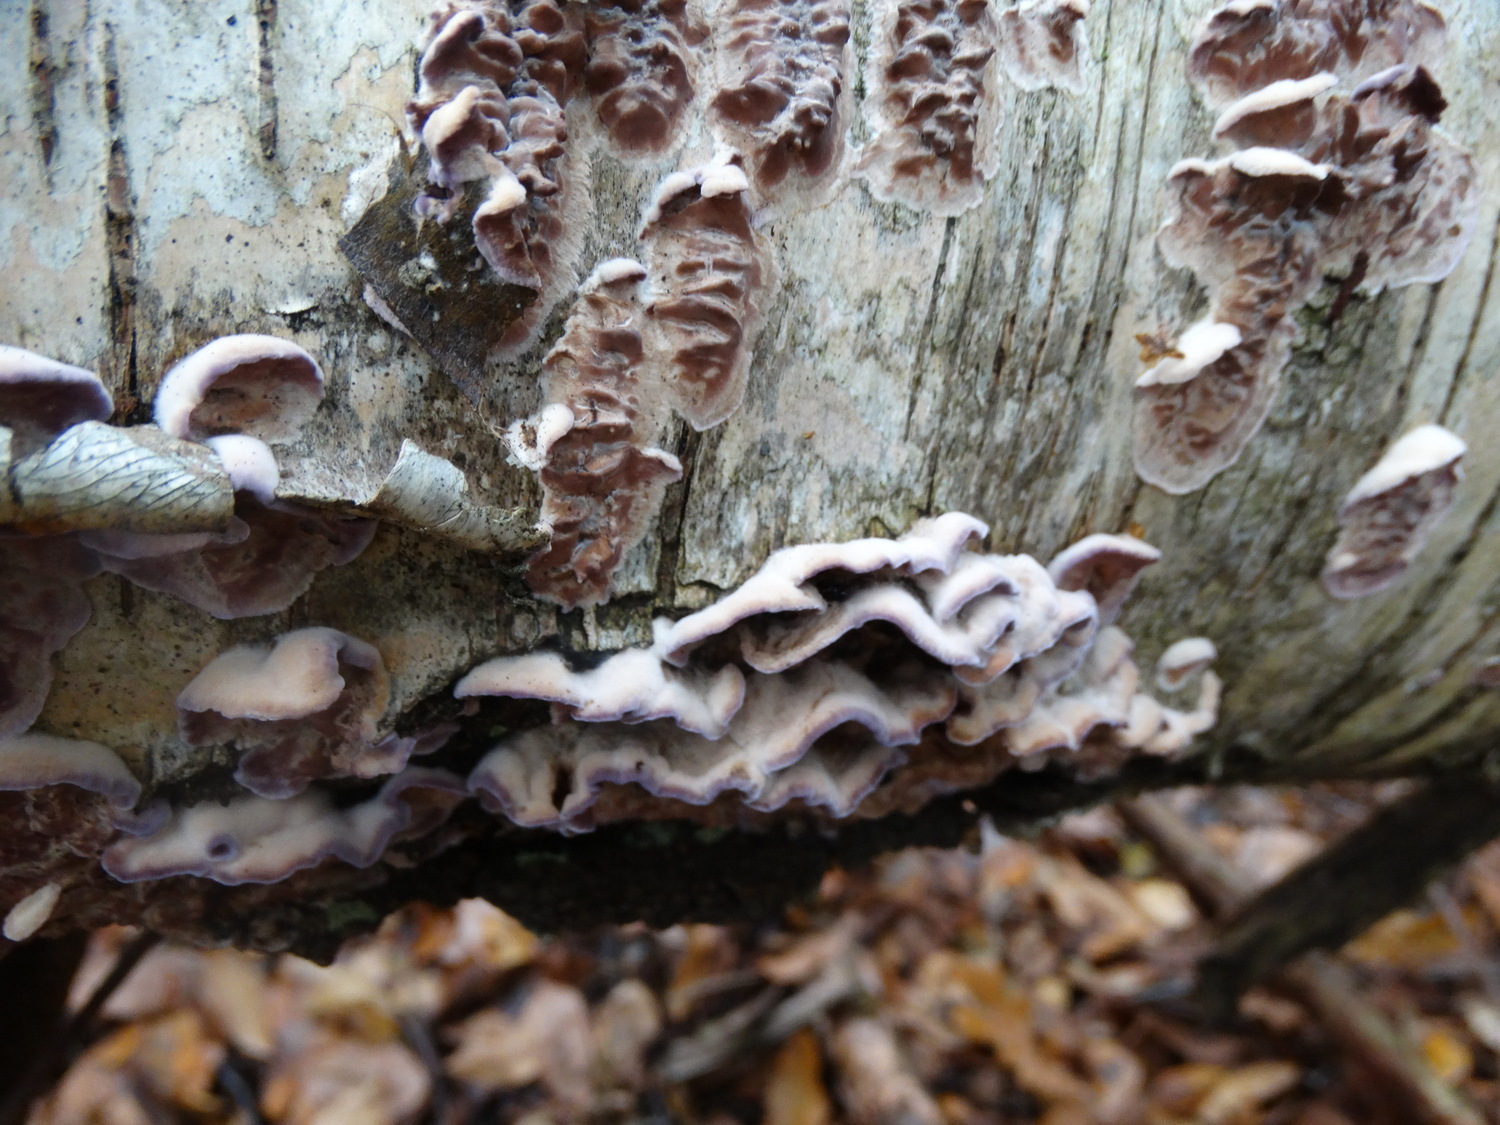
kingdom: Fungi
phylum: Basidiomycota
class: Agaricomycetes
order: Agaricales
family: Cyphellaceae
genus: Chondrostereum
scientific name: Chondrostereum purpureum
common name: purpurlædersvamp
